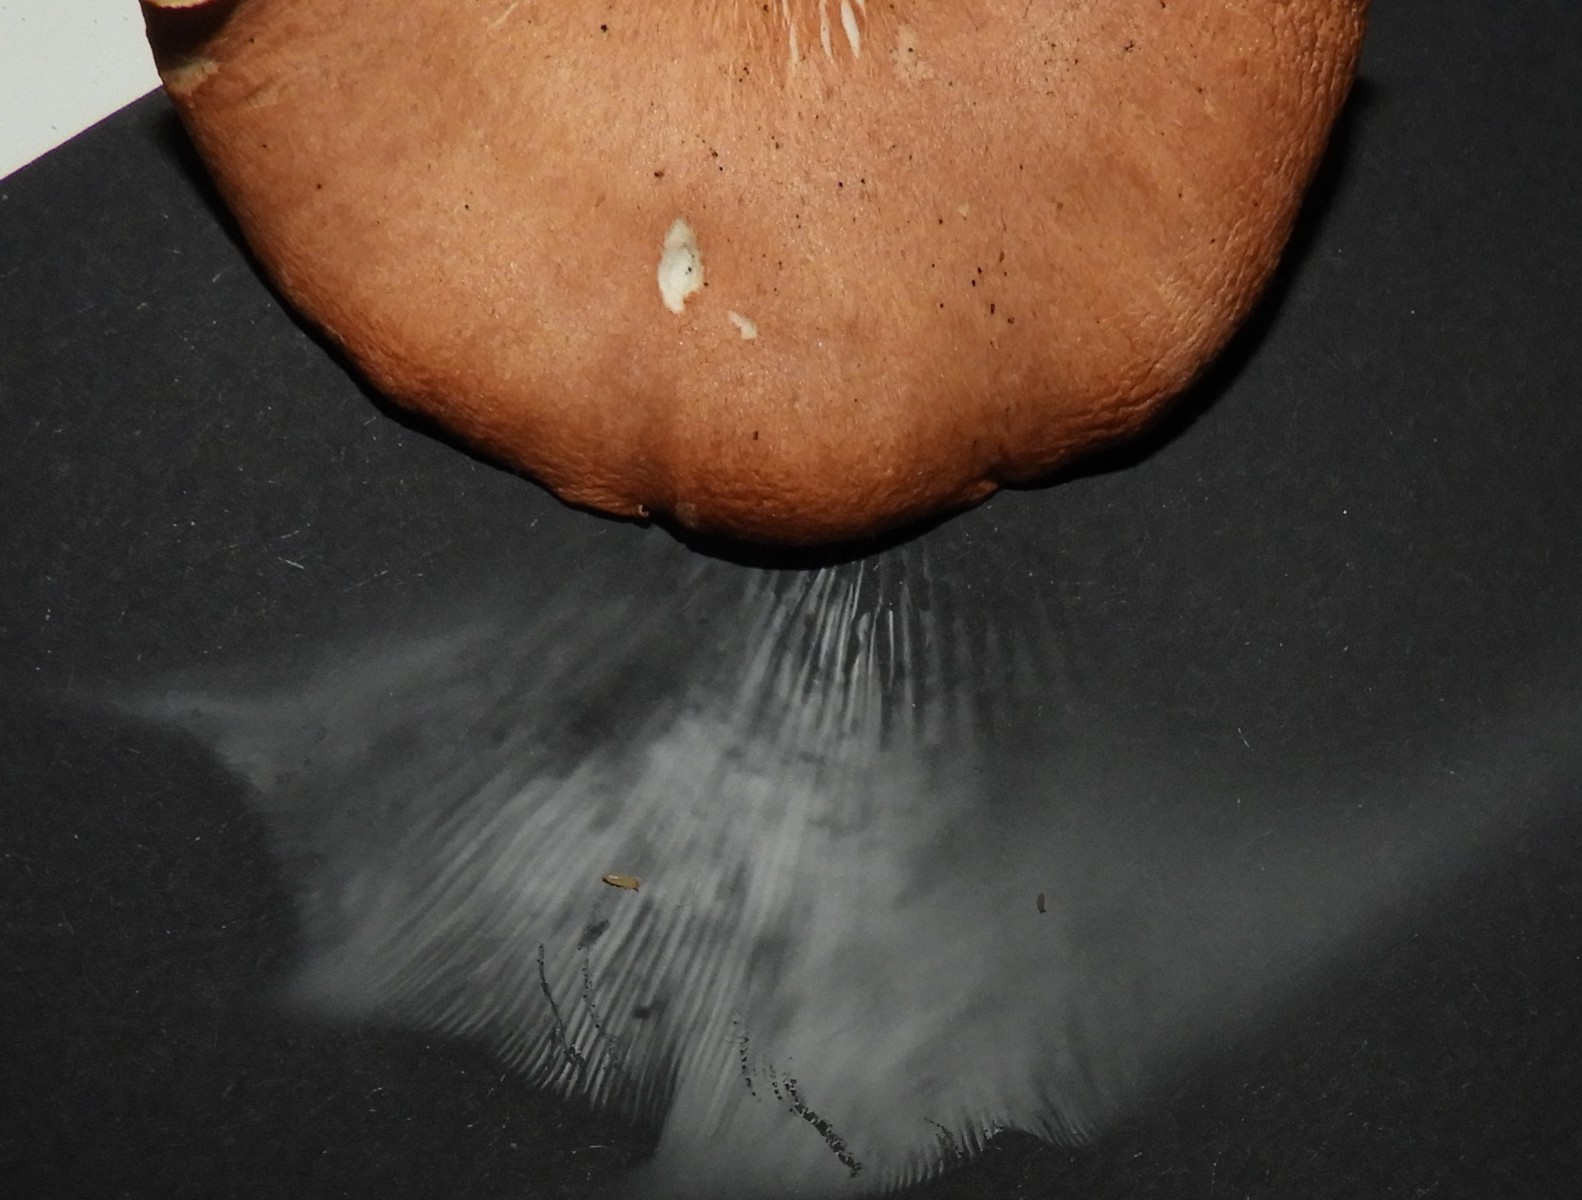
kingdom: Fungi
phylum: Basidiomycota
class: Agaricomycetes
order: Agaricales
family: Tricholomataceae
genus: Tricholomopsis
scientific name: Tricholomopsis rutilans
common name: purpur-væbnerhat
